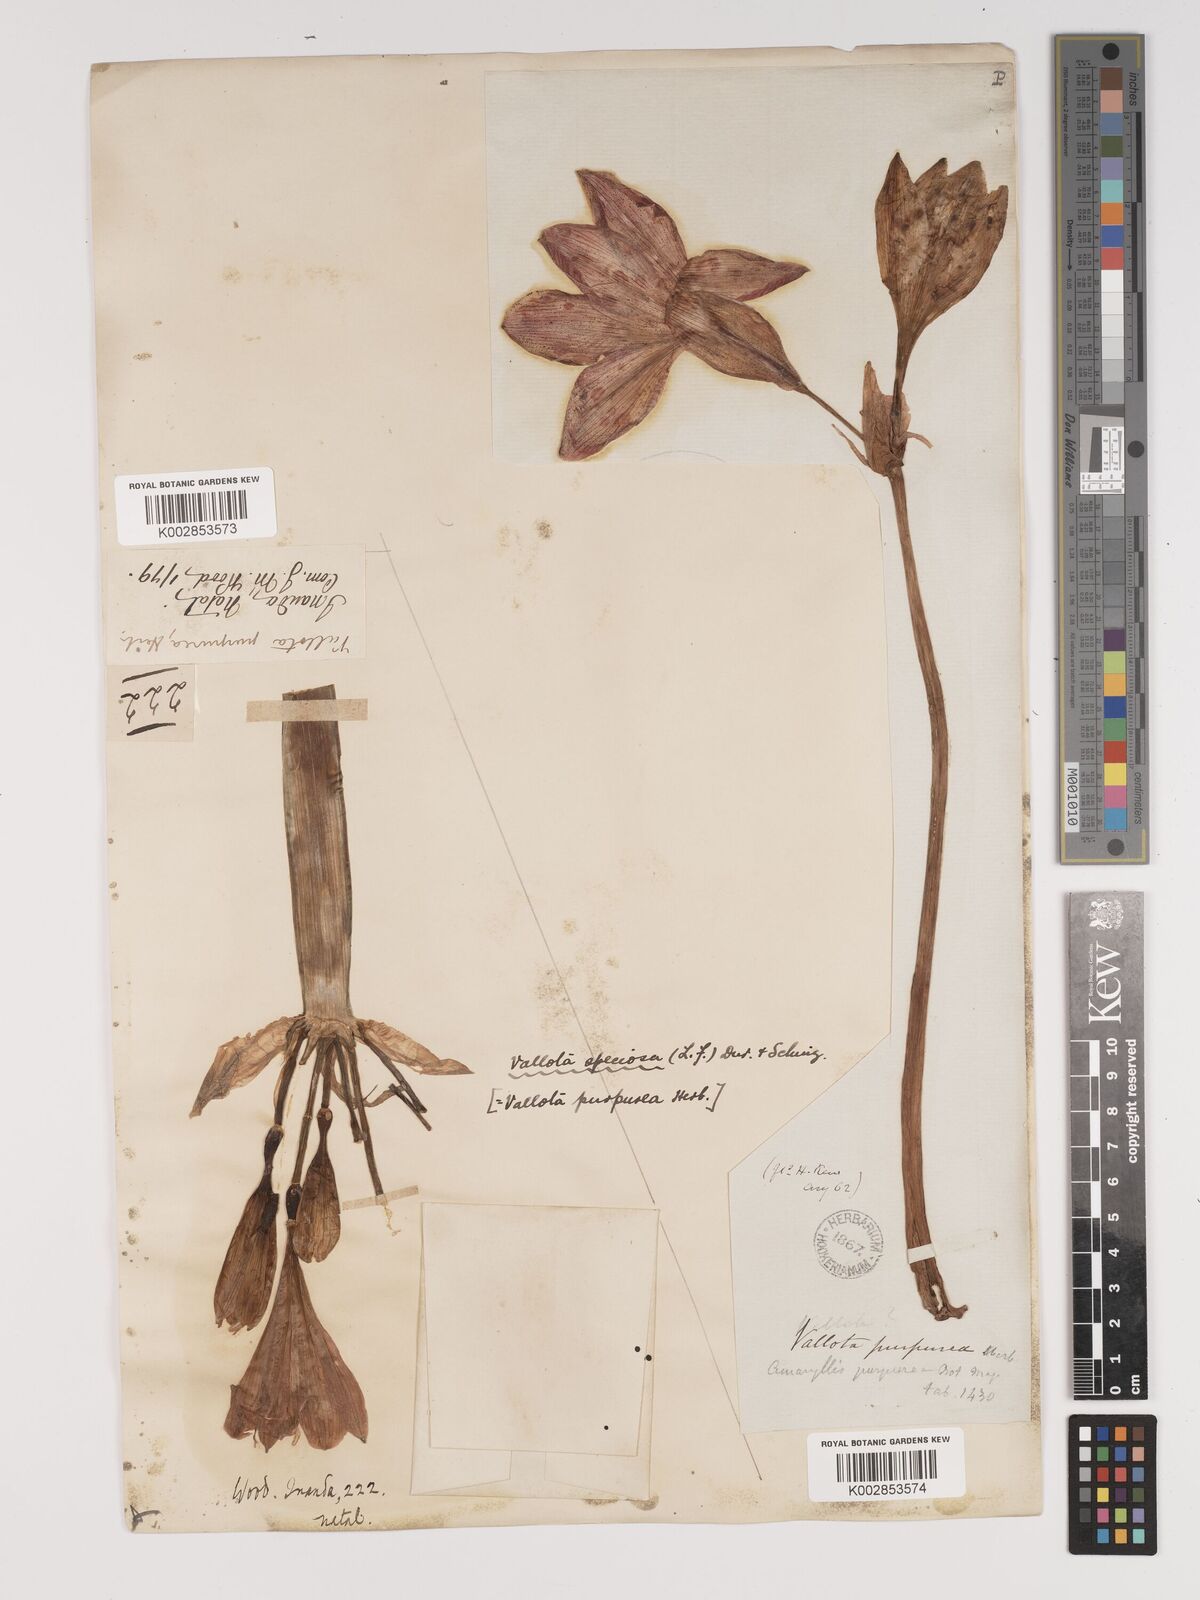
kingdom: Plantae
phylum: Tracheophyta
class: Liliopsida
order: Asparagales
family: Amaryllidaceae
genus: Cyrtanthus
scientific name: Cyrtanthus elatus
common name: Scarborough-lily
